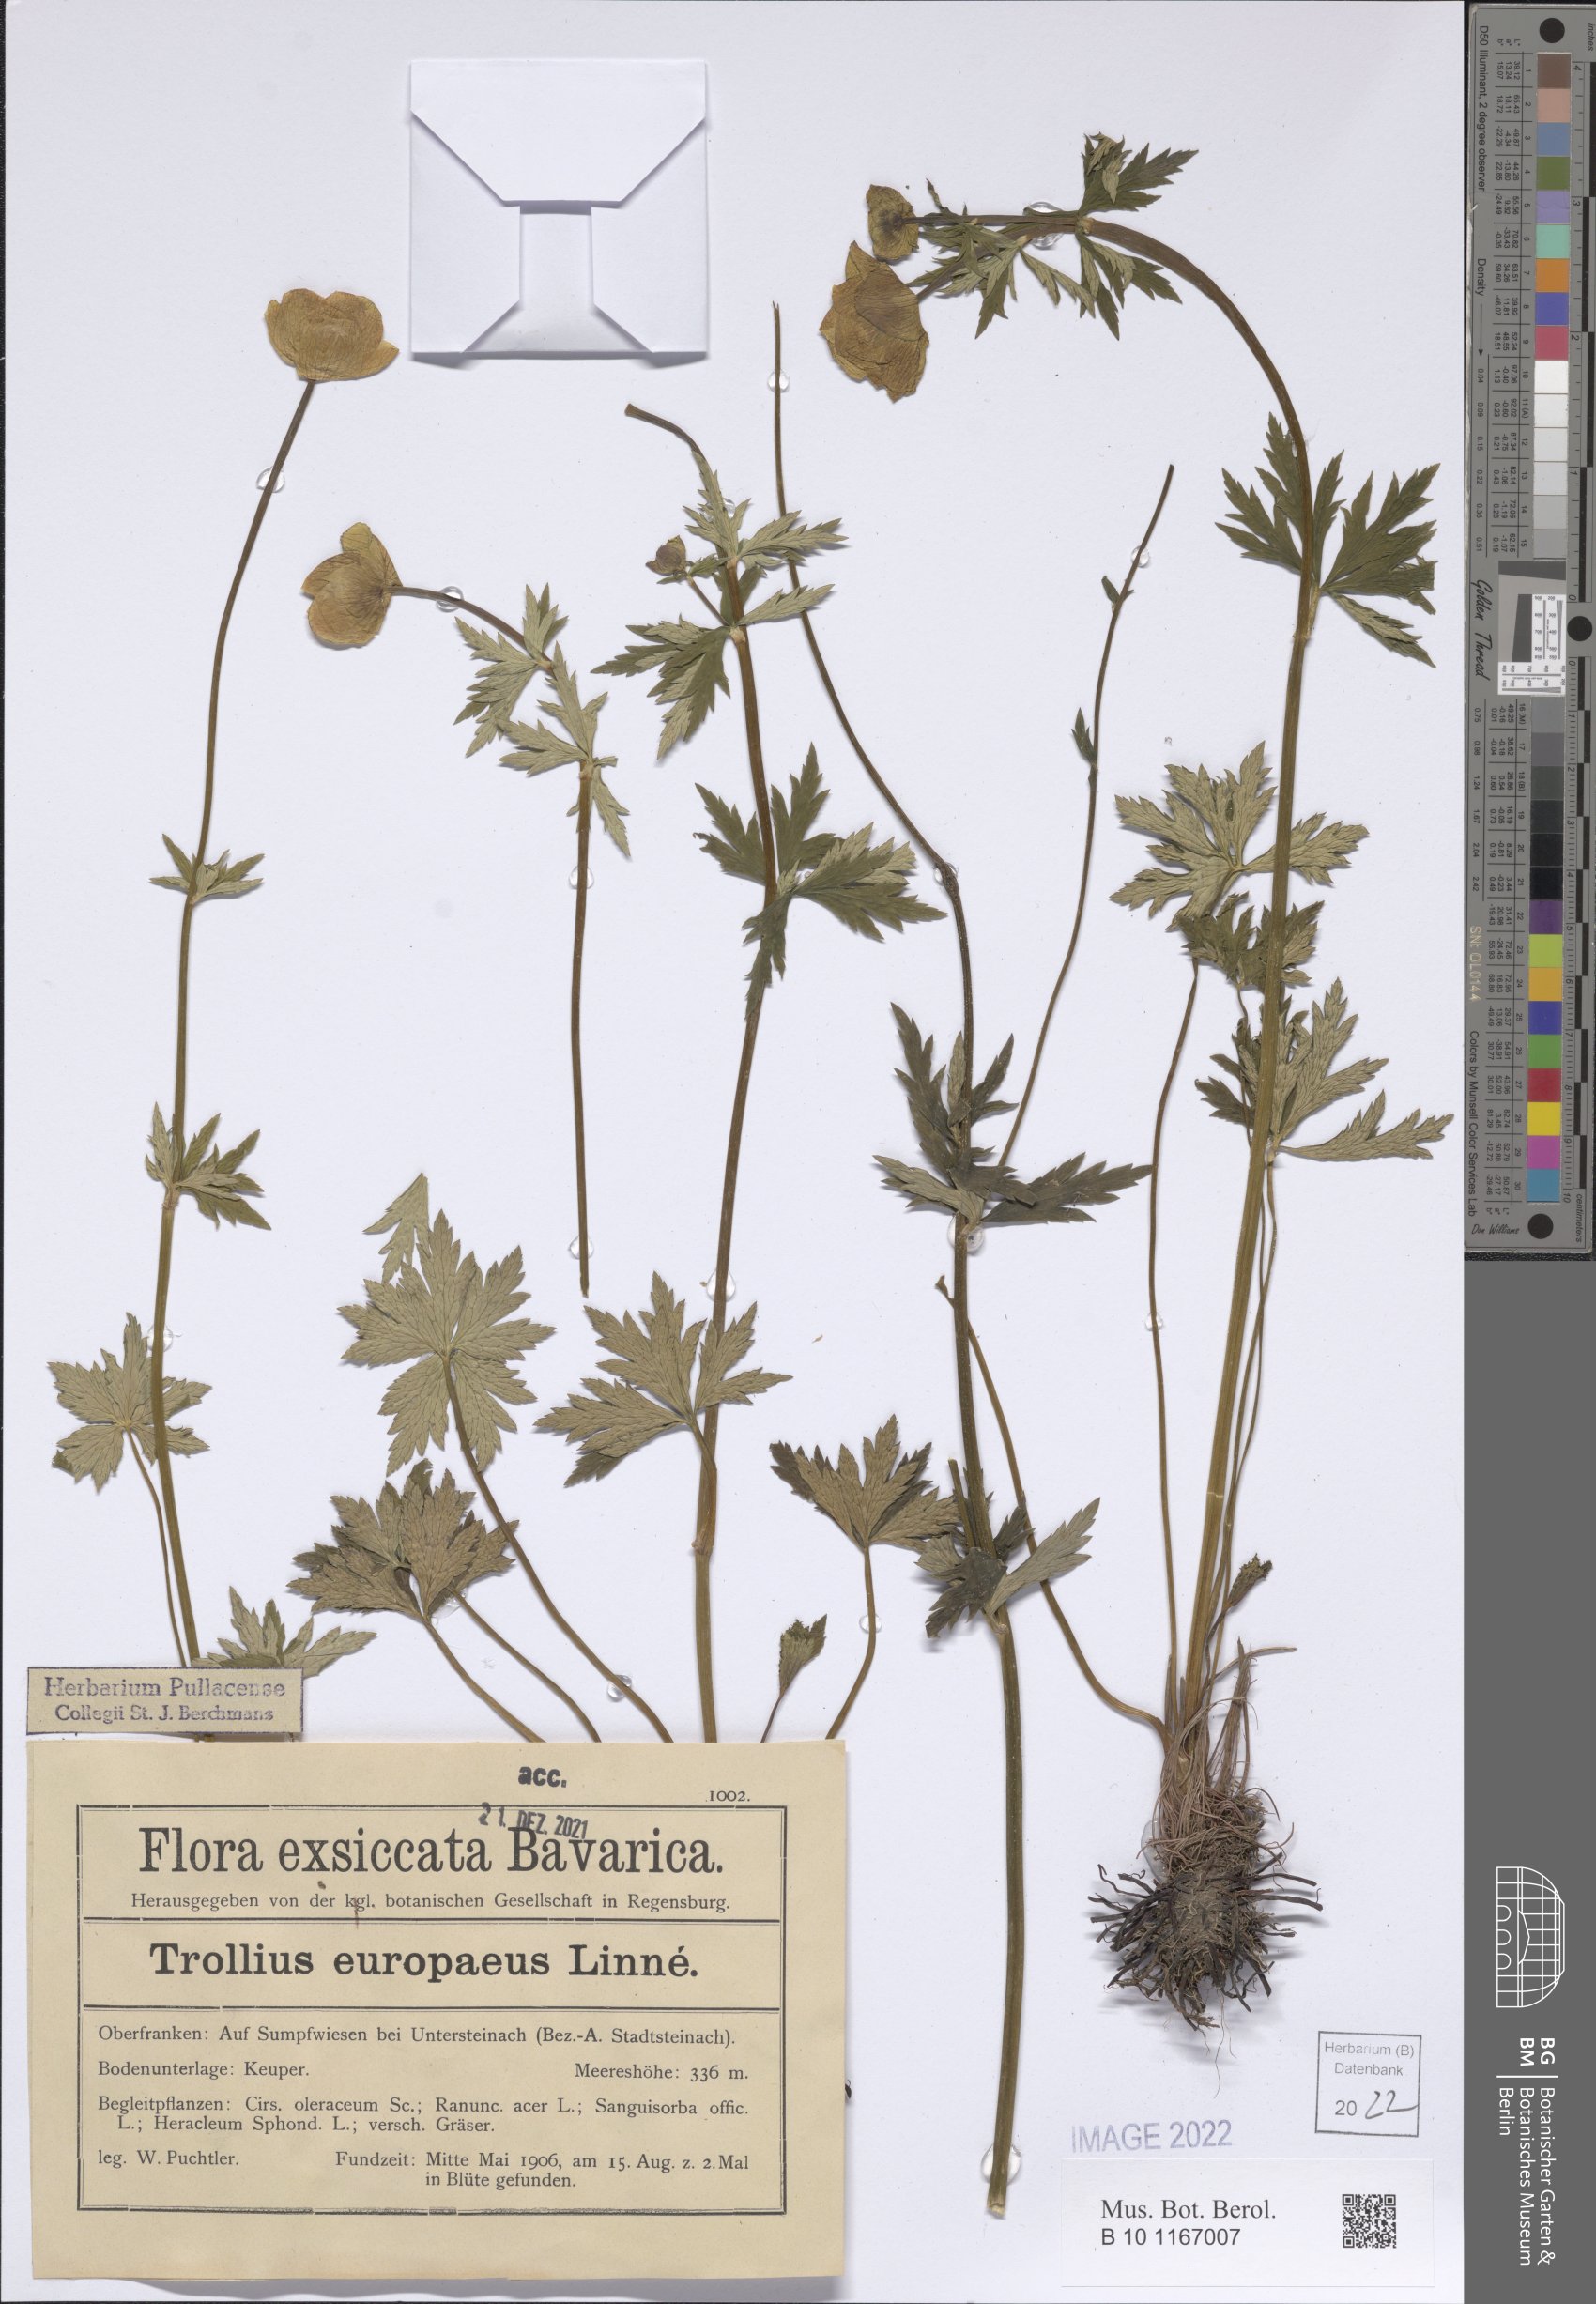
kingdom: Plantae
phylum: Tracheophyta
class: Magnoliopsida
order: Ranunculales
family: Ranunculaceae
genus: Trollius
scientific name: Trollius europaeus
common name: European globeflower
